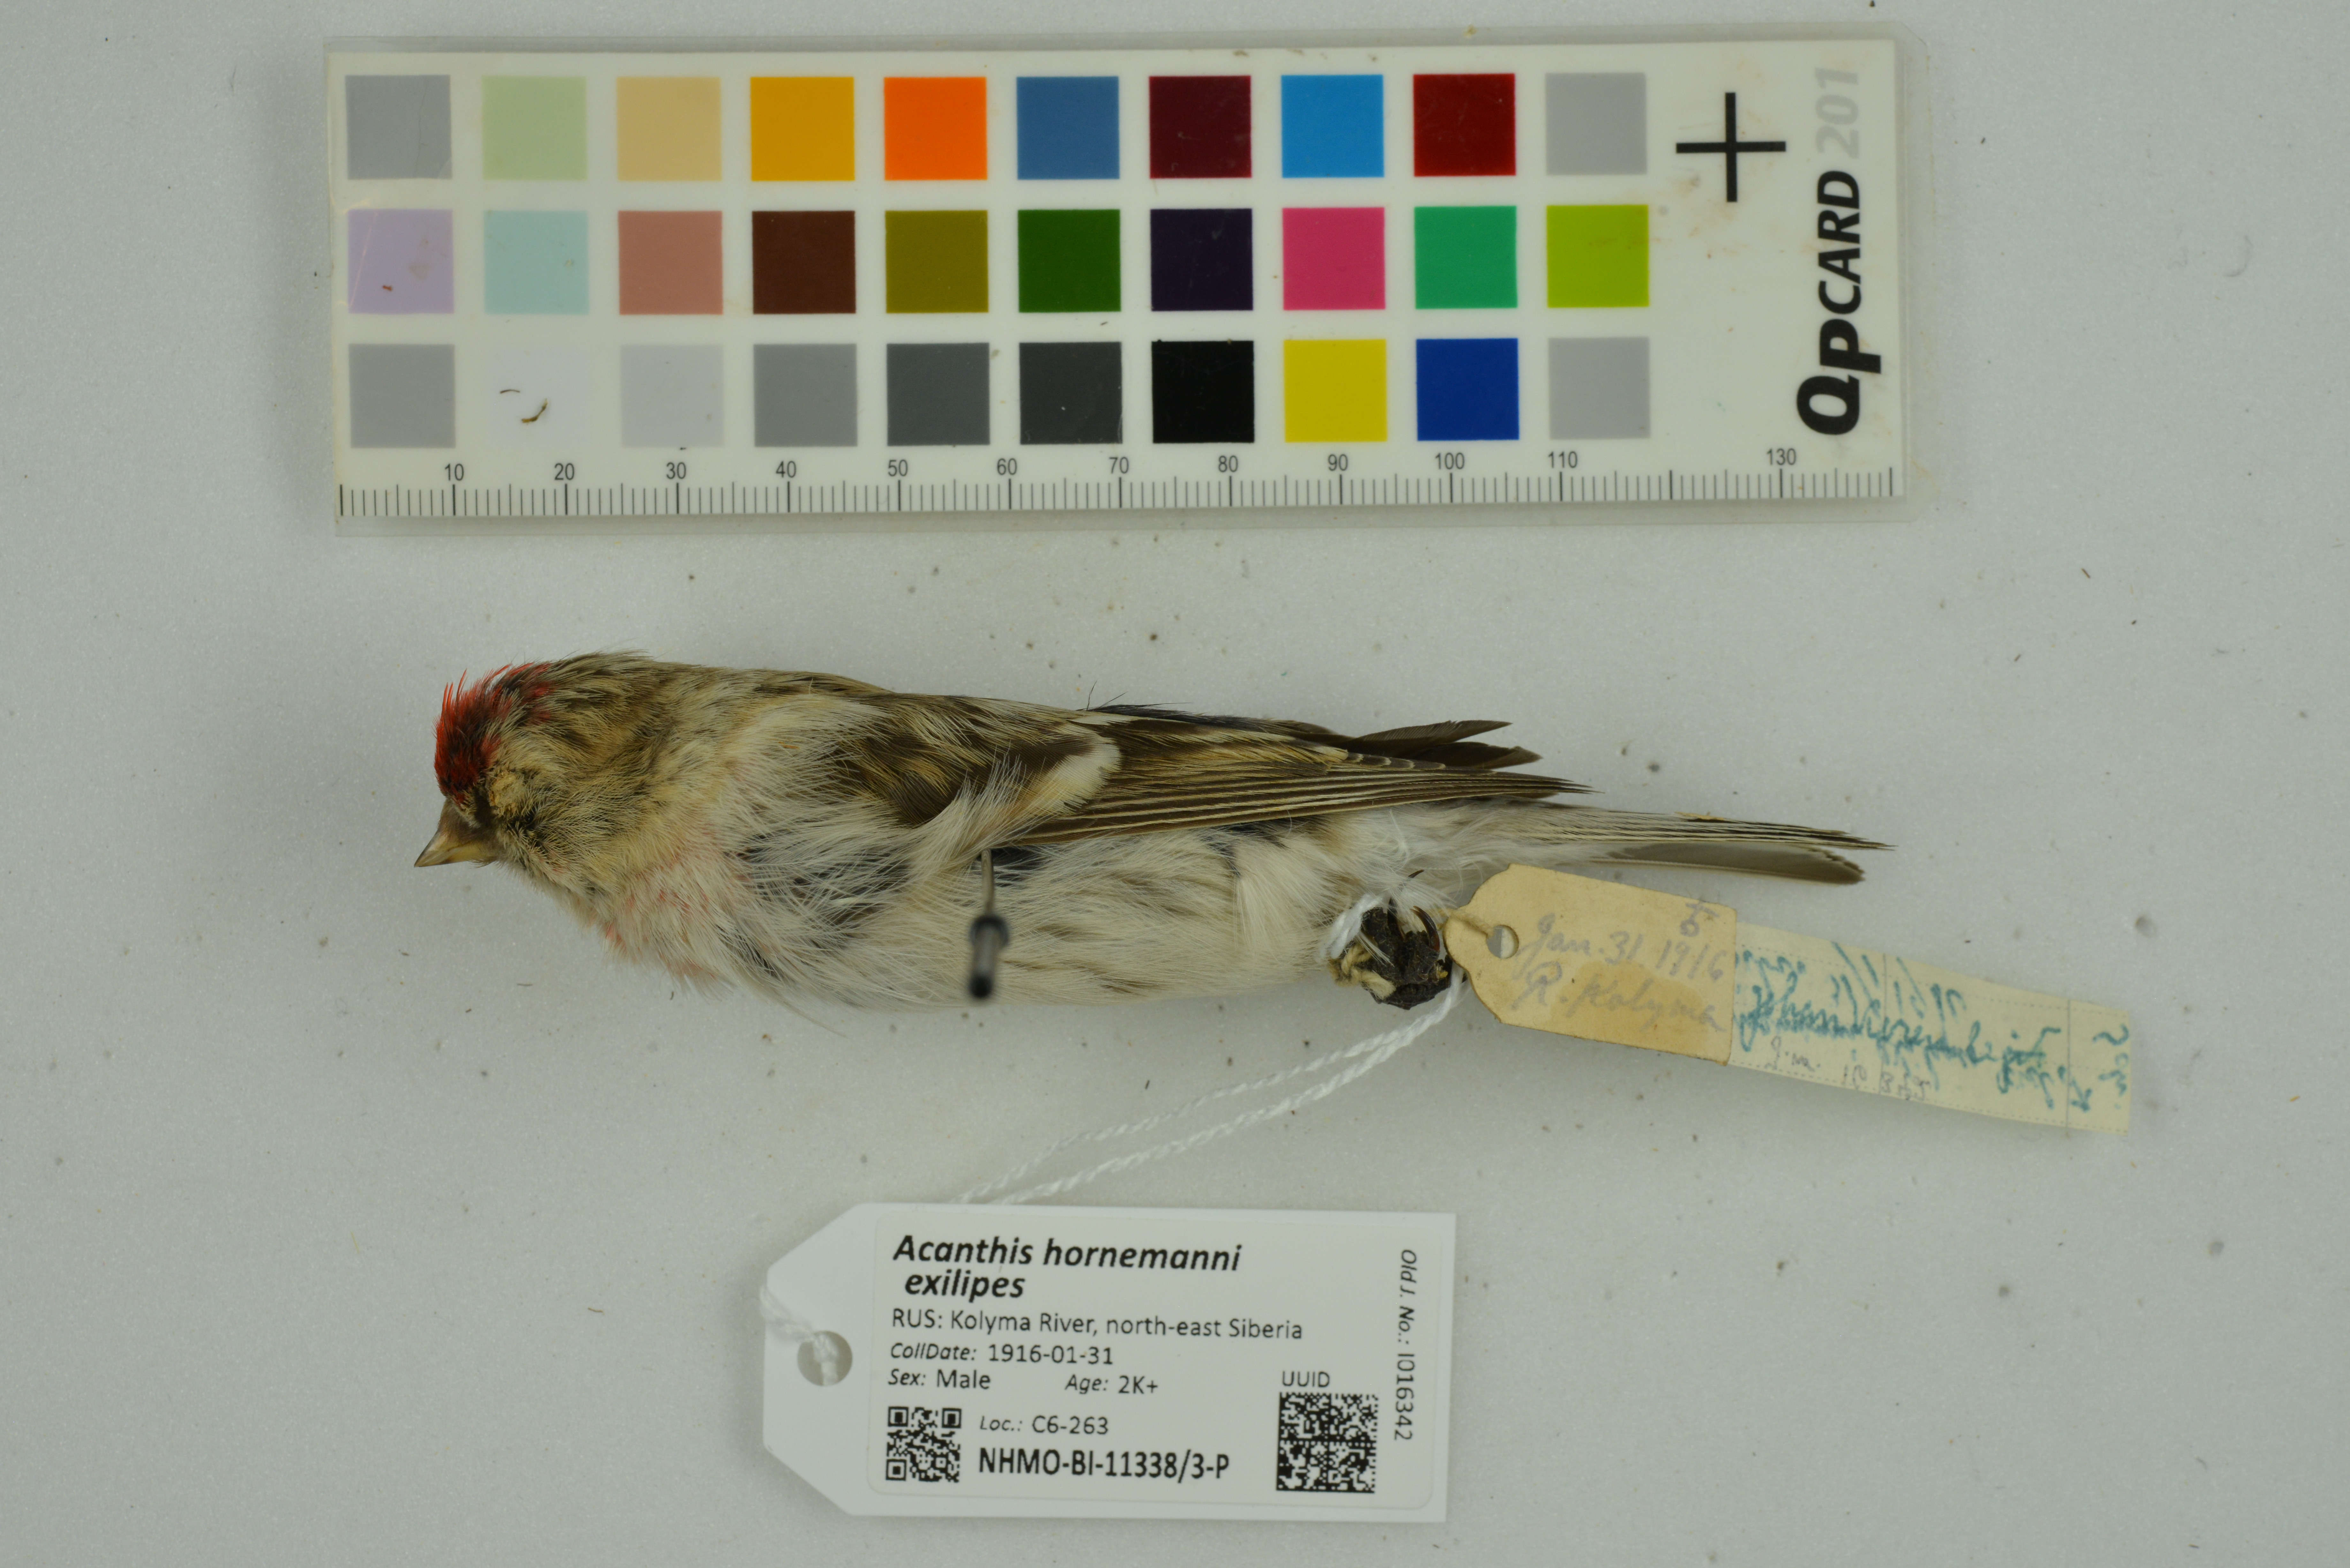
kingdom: Animalia
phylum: Chordata
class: Aves
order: Passeriformes
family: Fringillidae
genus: Acanthis
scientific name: Acanthis hornemanni
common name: Arctic redpoll
